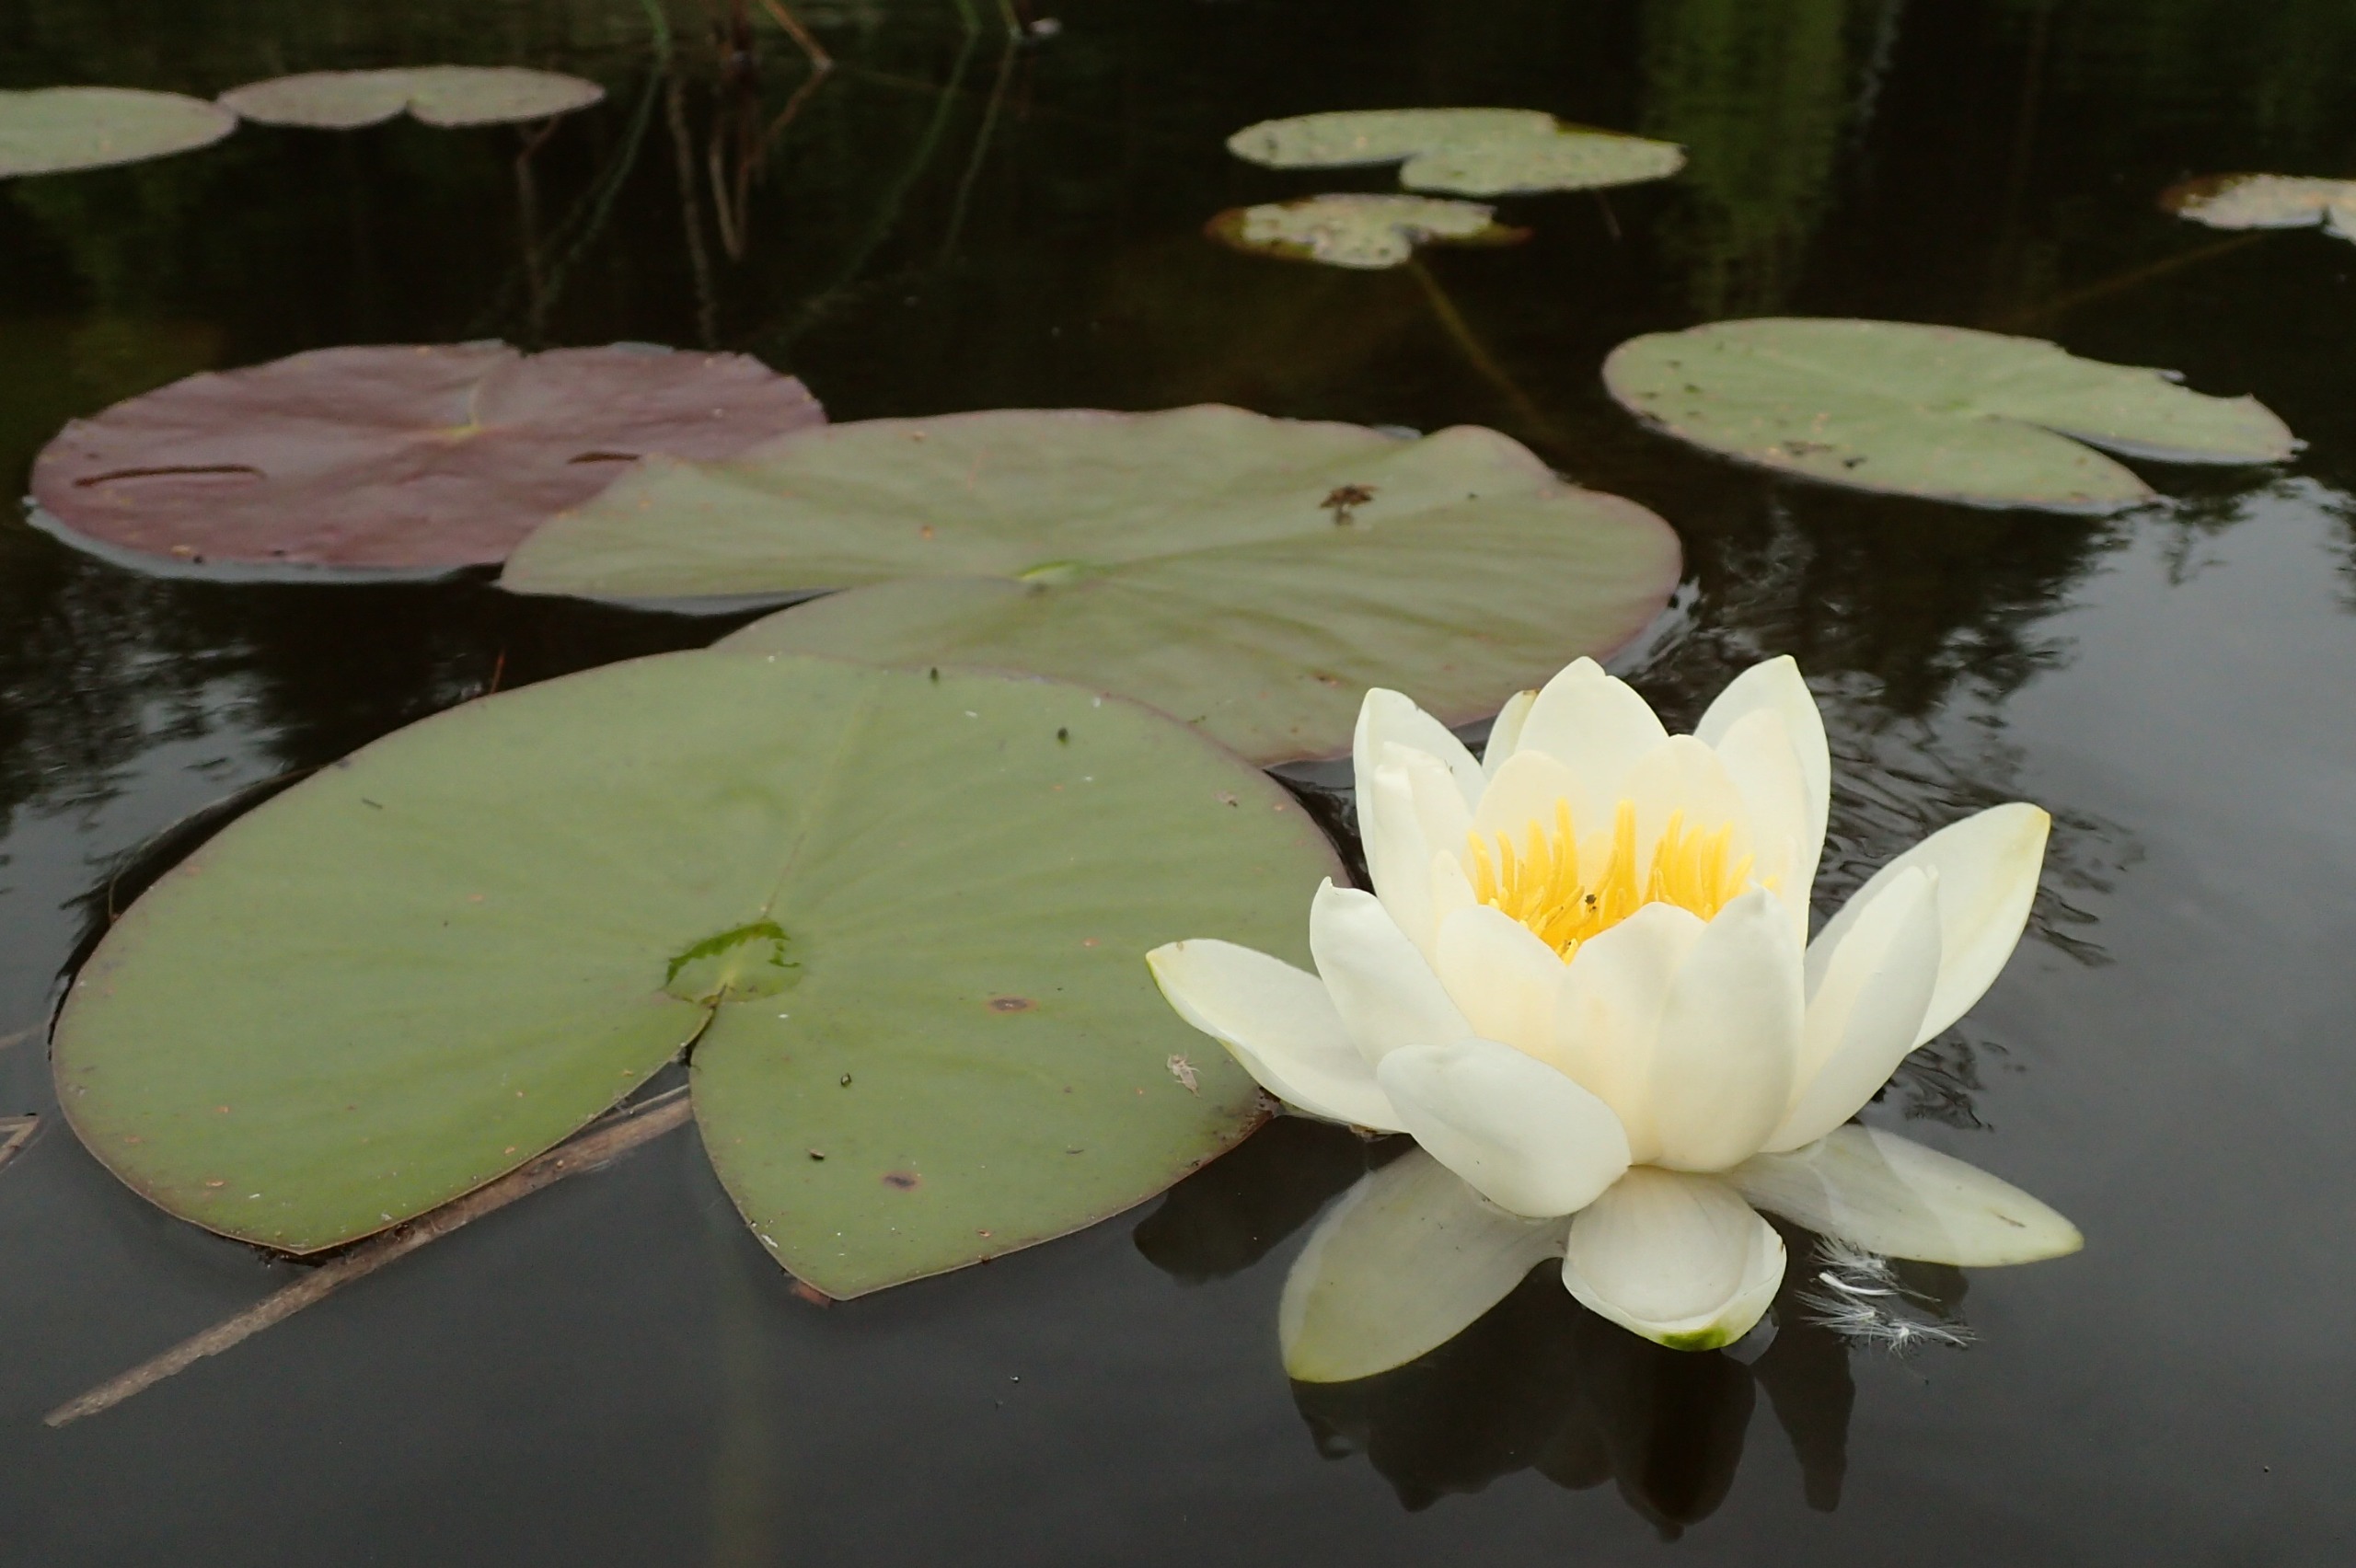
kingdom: Plantae
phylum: Tracheophyta
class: Magnoliopsida
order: Nymphaeales
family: Nymphaeaceae
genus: Nymphaea
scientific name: Nymphaea alba
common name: Hvid åkande
